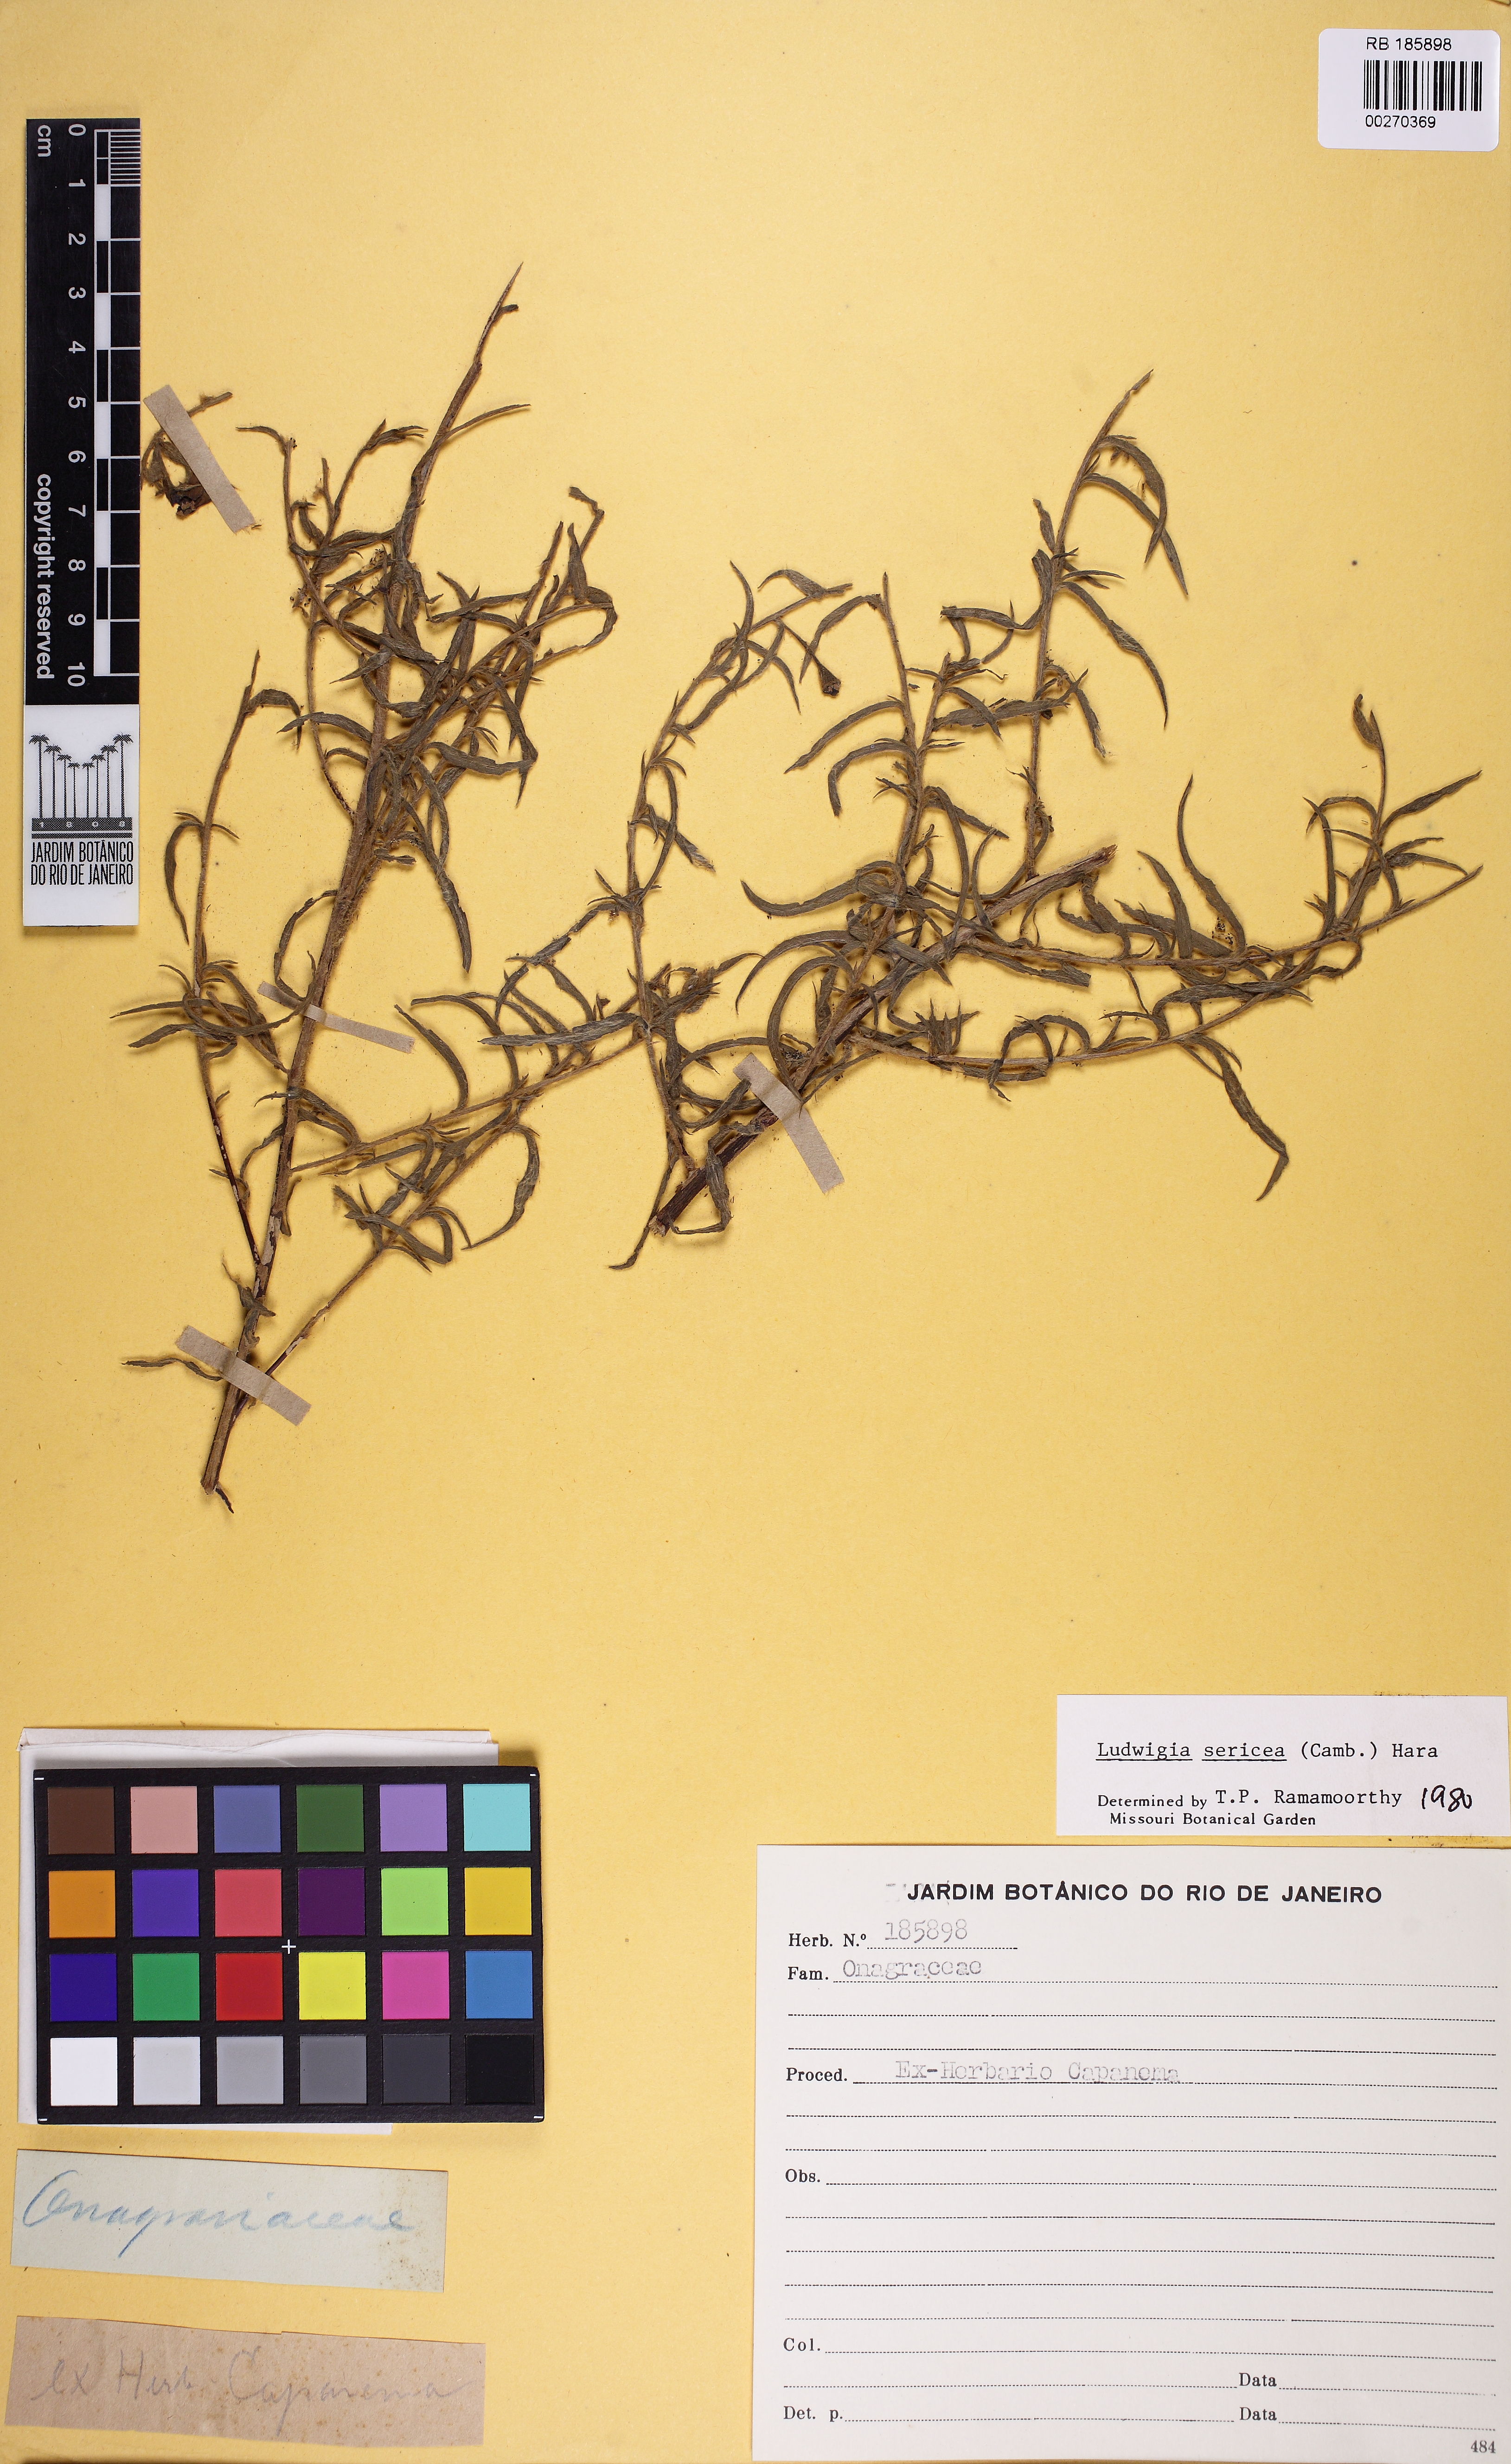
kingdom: Plantae
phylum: Tracheophyta
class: Magnoliopsida
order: Myrtales
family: Onagraceae
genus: Ludwigia
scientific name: Ludwigia sericea
